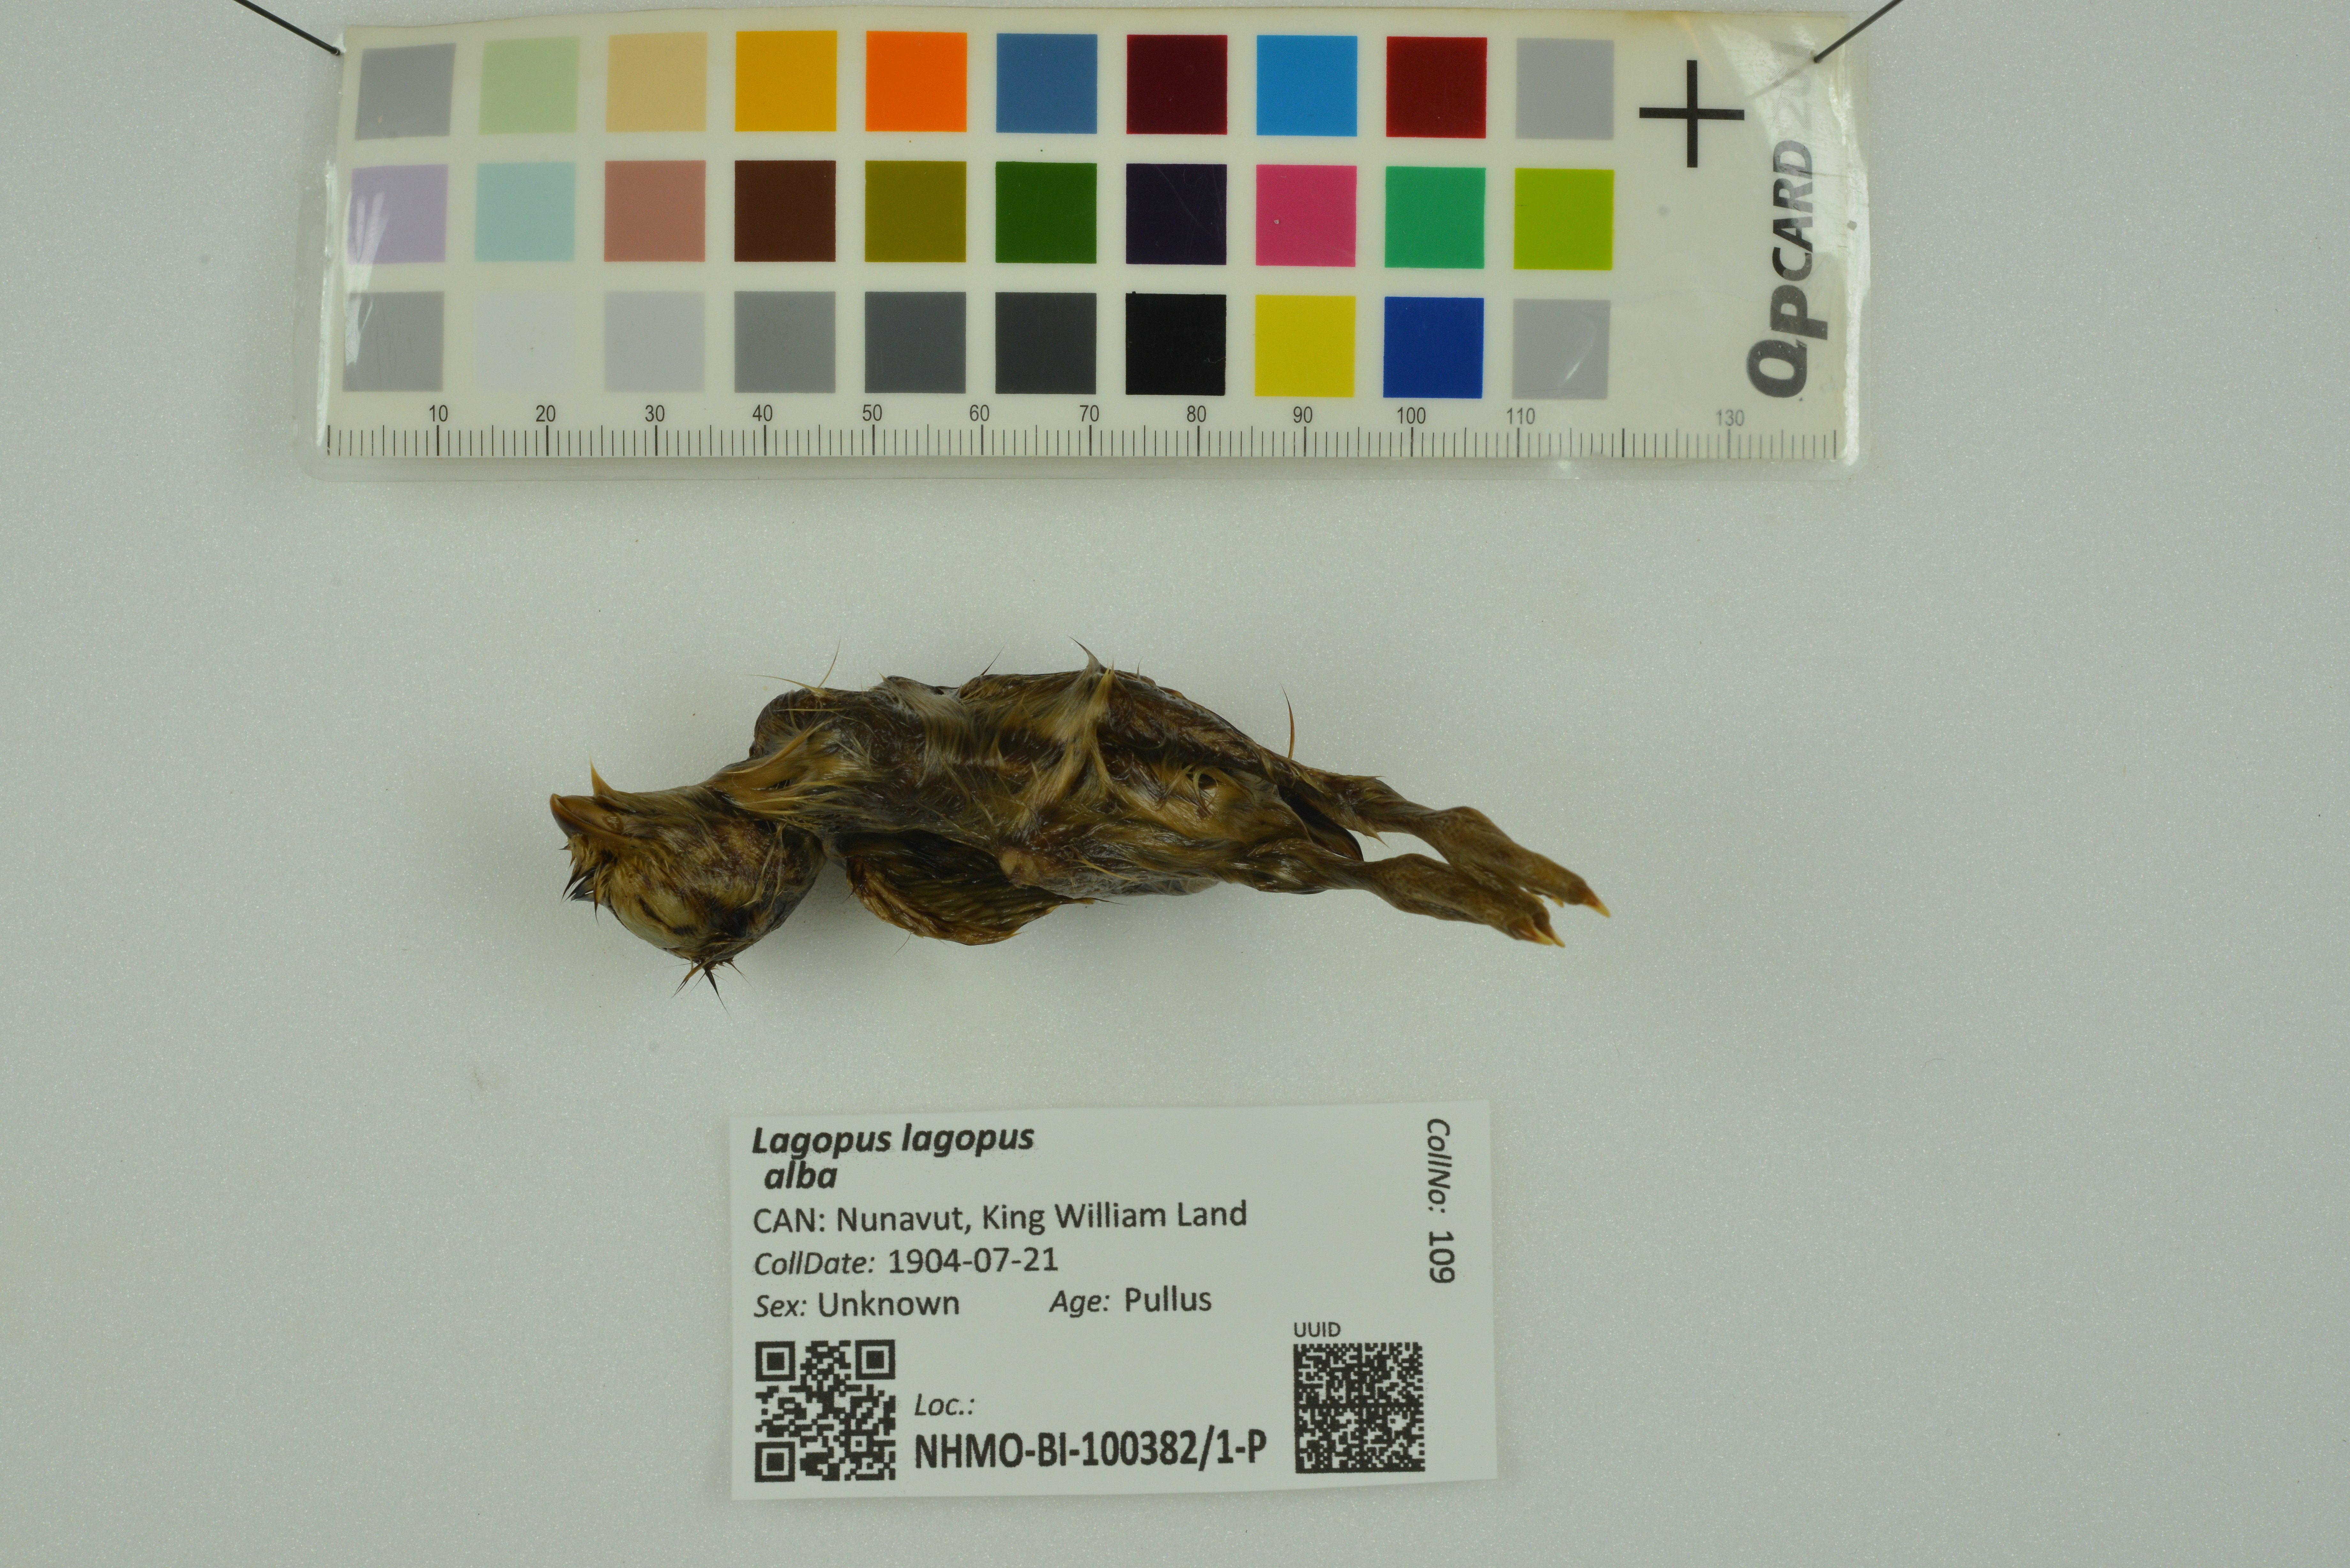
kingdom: Animalia
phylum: Chordata
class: Aves
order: Galliformes
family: Phasianidae
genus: Lagopus
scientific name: Lagopus lagopus
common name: Willow ptarmigan
